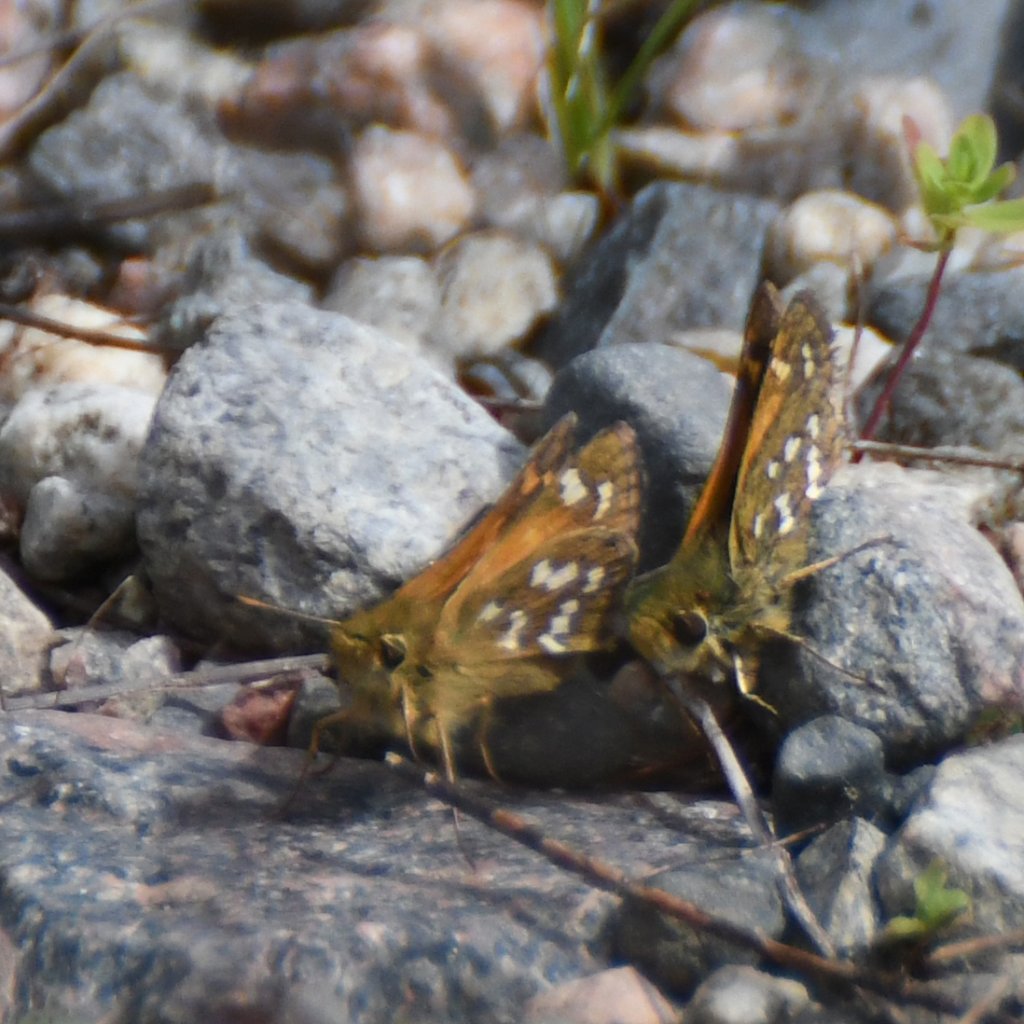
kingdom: Animalia
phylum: Arthropoda
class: Insecta
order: Lepidoptera
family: Hesperiidae
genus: Hesperia
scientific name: Hesperia comma
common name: Common Branded Skipper
